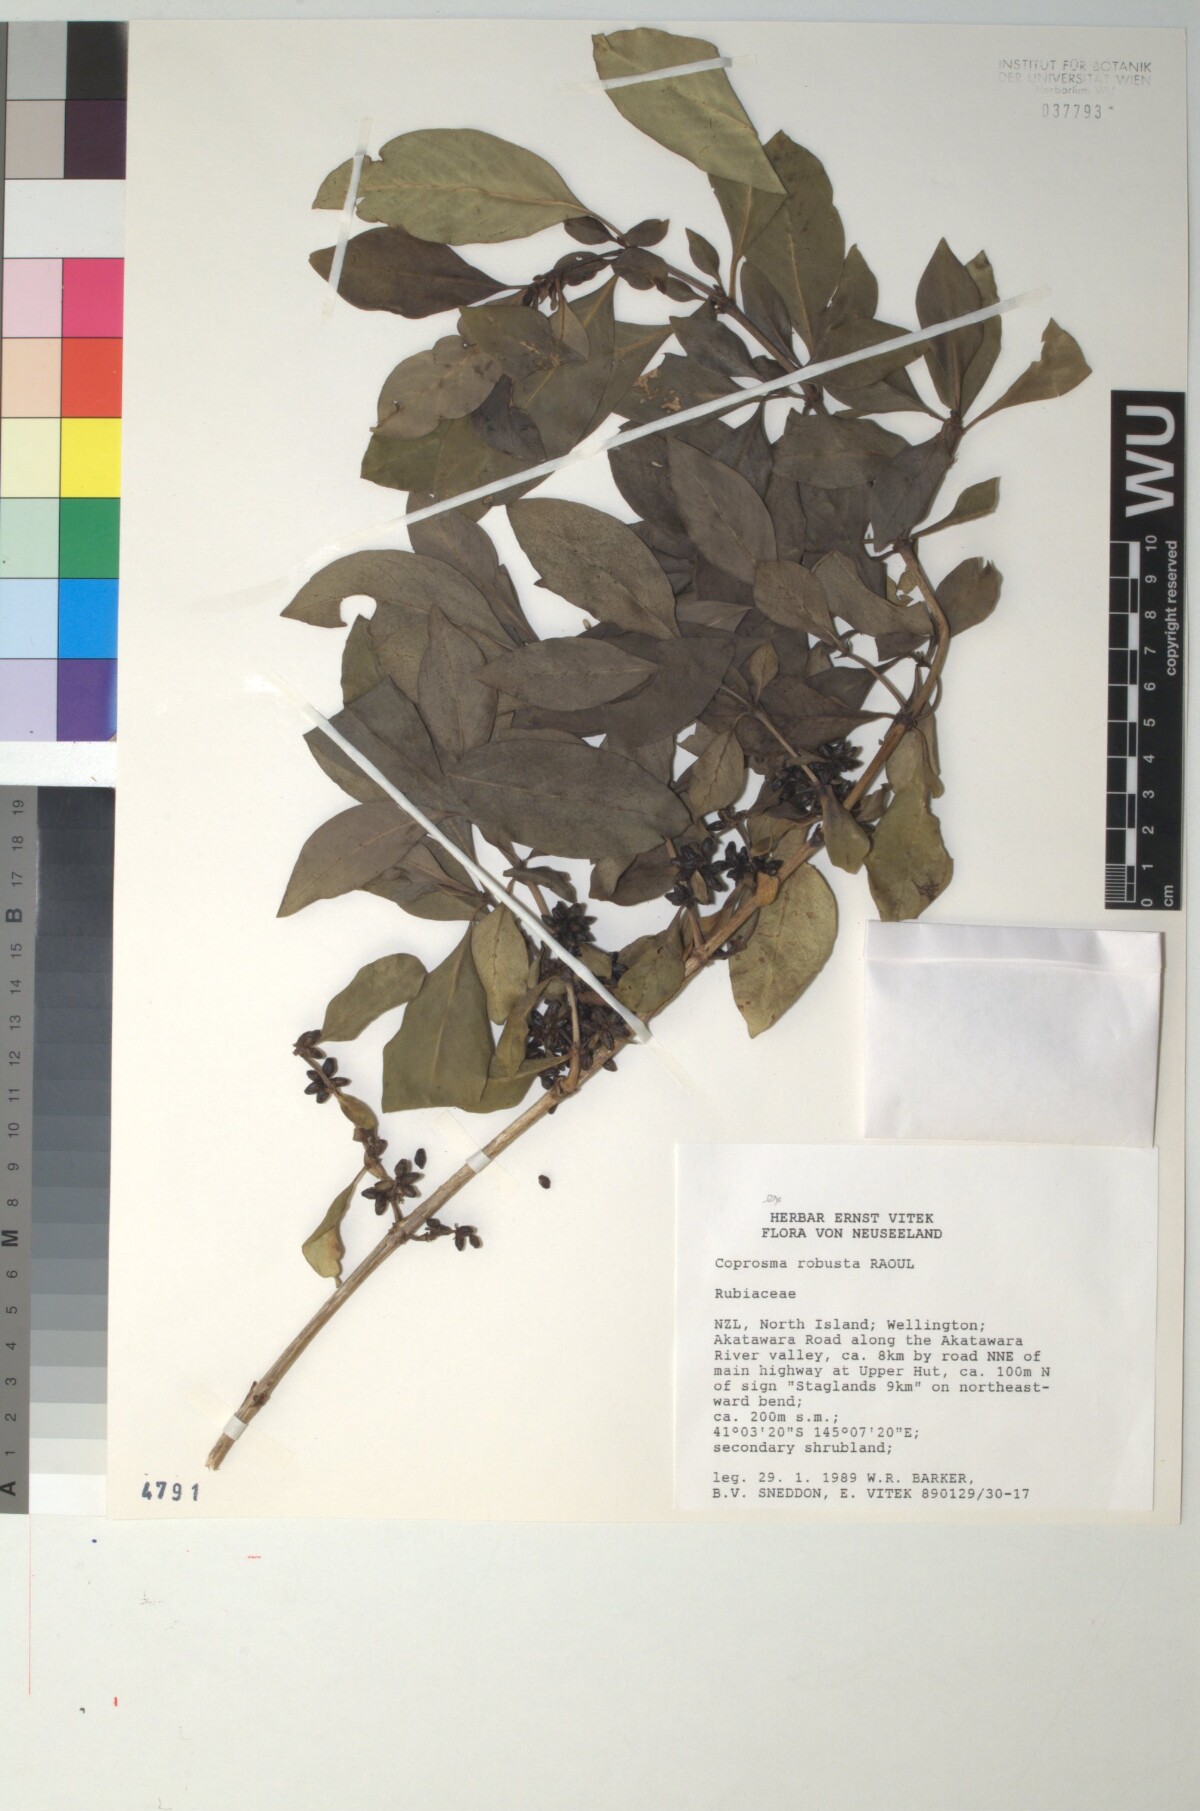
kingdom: Plantae
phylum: Tracheophyta
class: Magnoliopsida
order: Gentianales
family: Rubiaceae
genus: Coprosma
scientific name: Coprosma robusta
